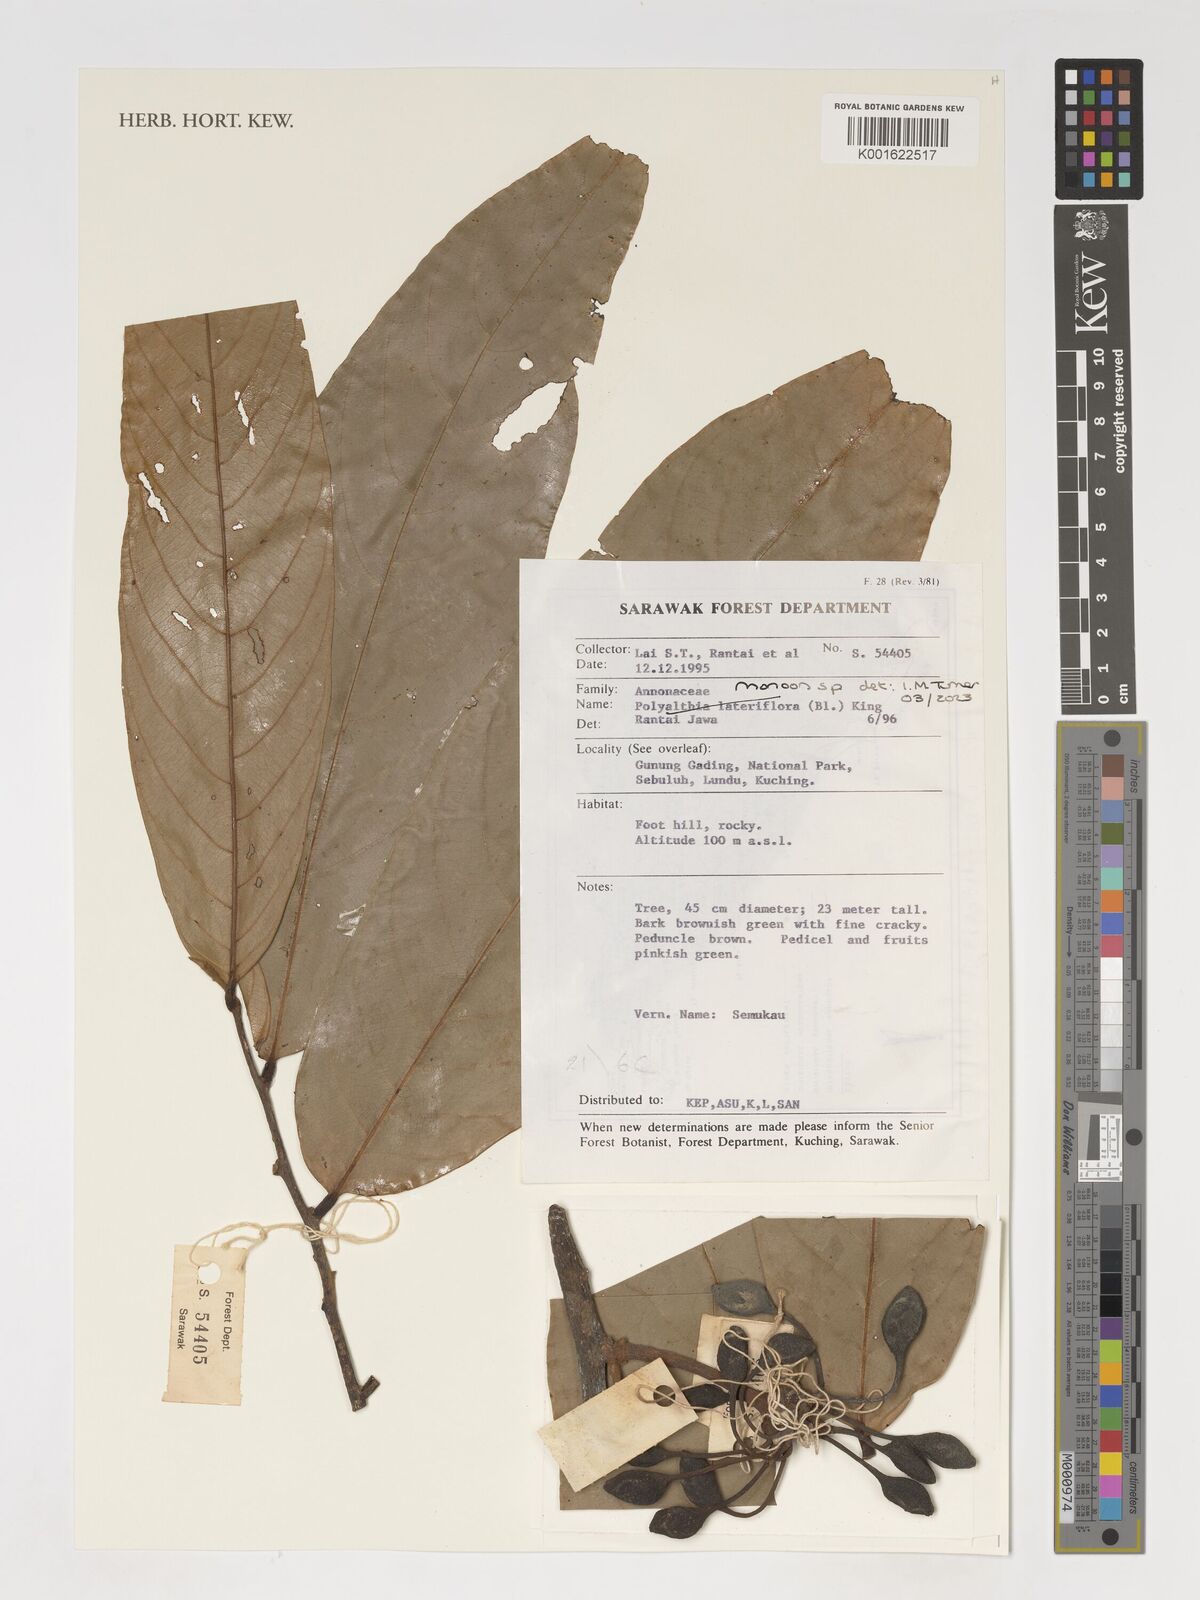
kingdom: Plantae
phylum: Tracheophyta
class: Magnoliopsida
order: Magnoliales
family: Annonaceae
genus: Monoon
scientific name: Monoon
